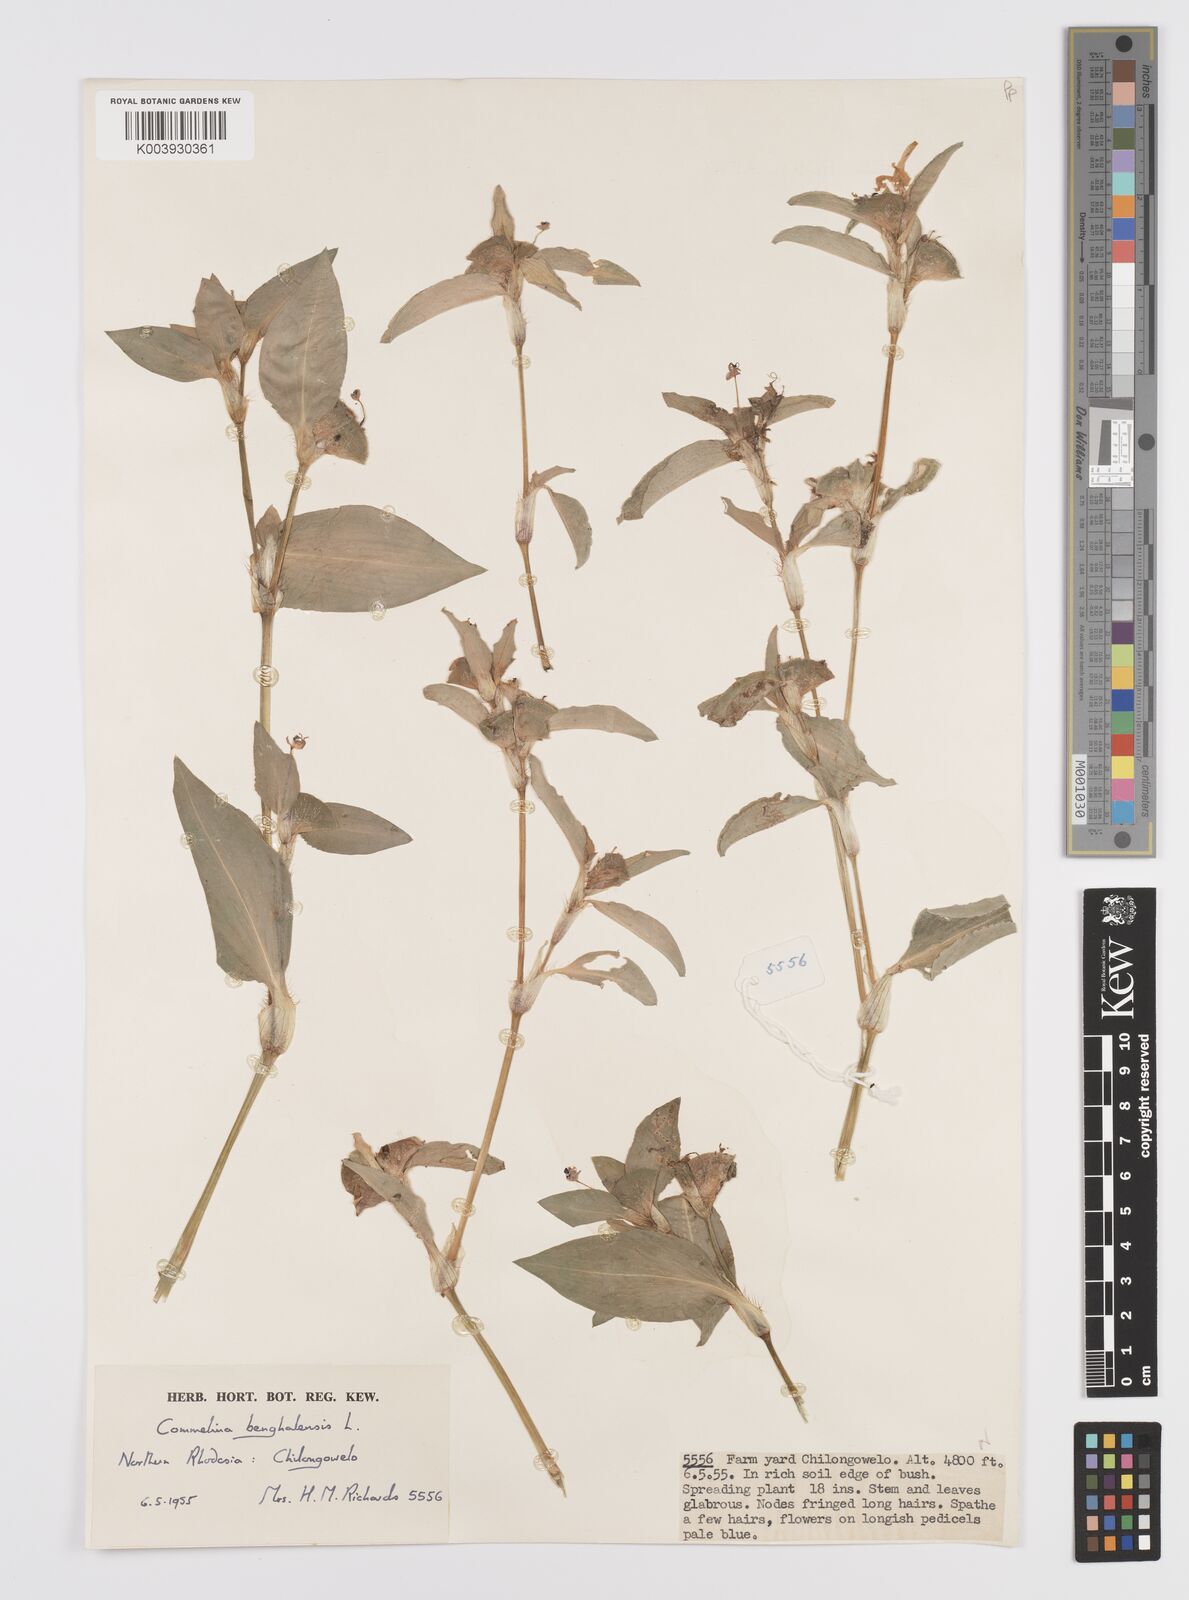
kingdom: Plantae
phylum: Tracheophyta
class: Liliopsida
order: Commelinales
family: Commelinaceae
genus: Commelina
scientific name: Commelina benghalensis
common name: Jio
